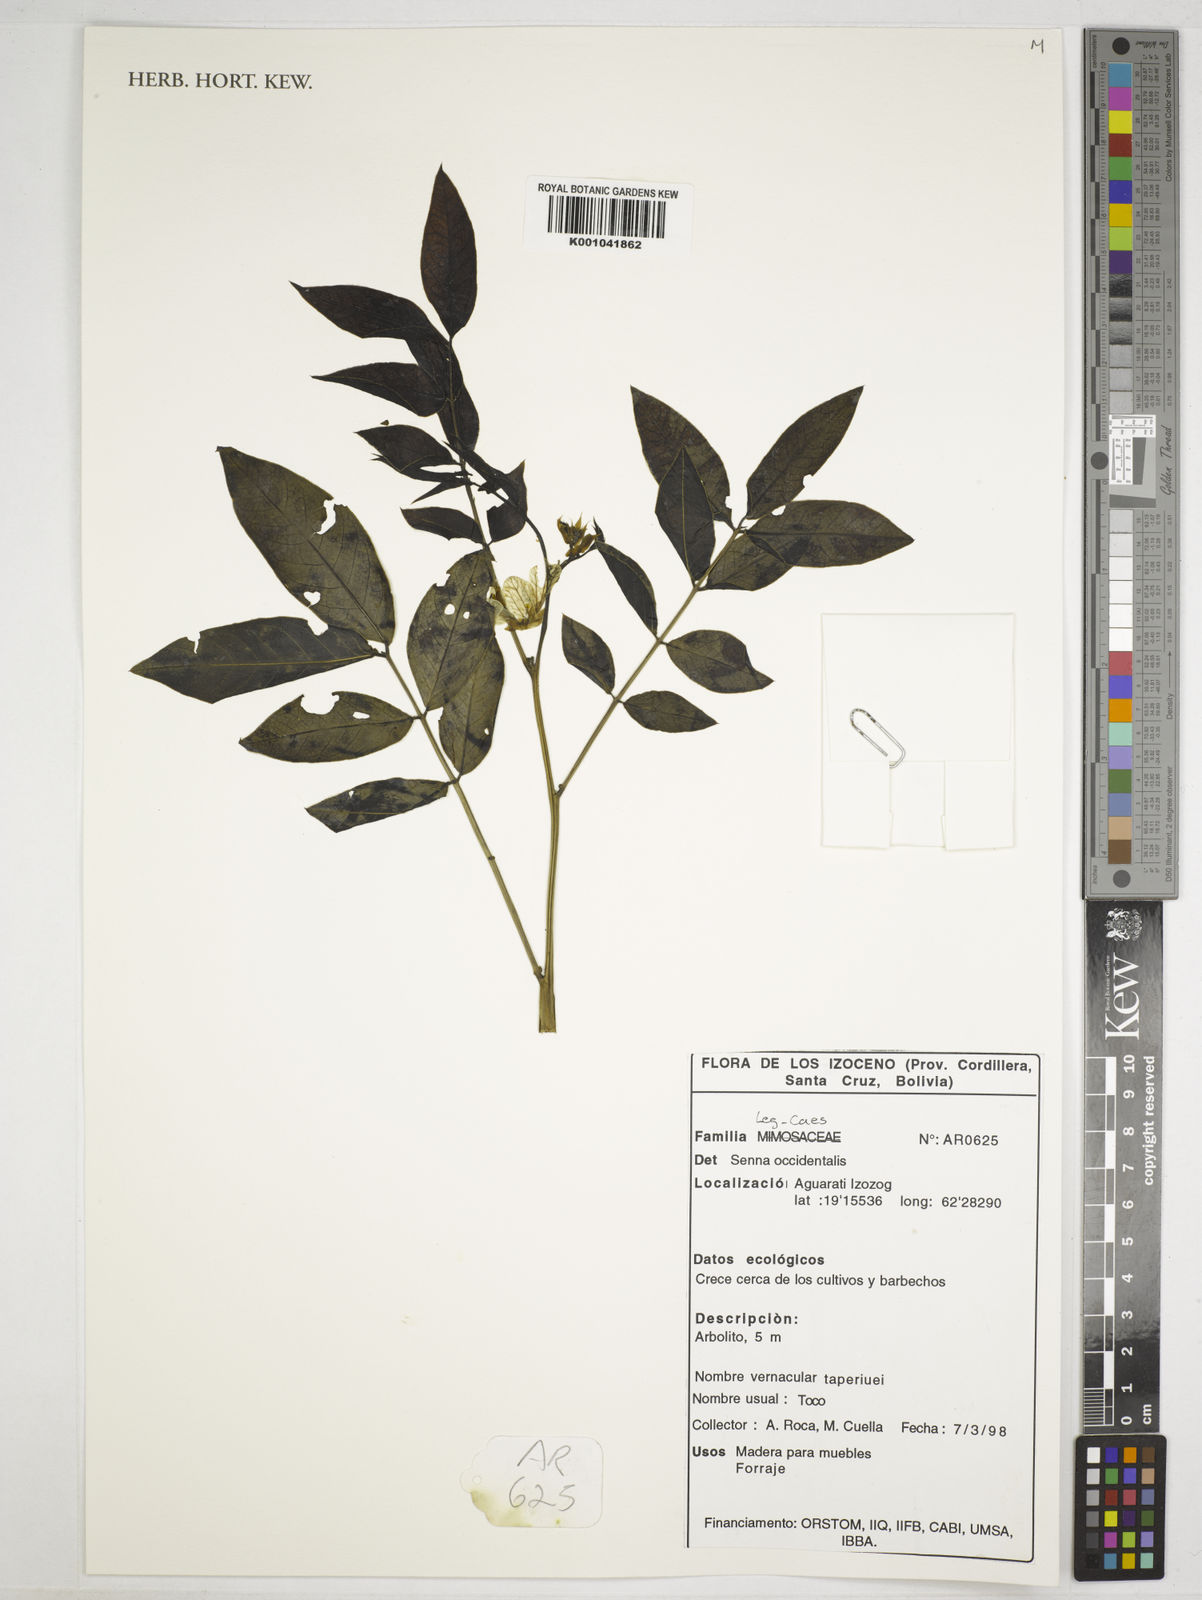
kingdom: Plantae
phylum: Tracheophyta
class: Magnoliopsida
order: Fabales
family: Fabaceae
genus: Senna
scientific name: Senna occidentalis
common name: Septicweed
